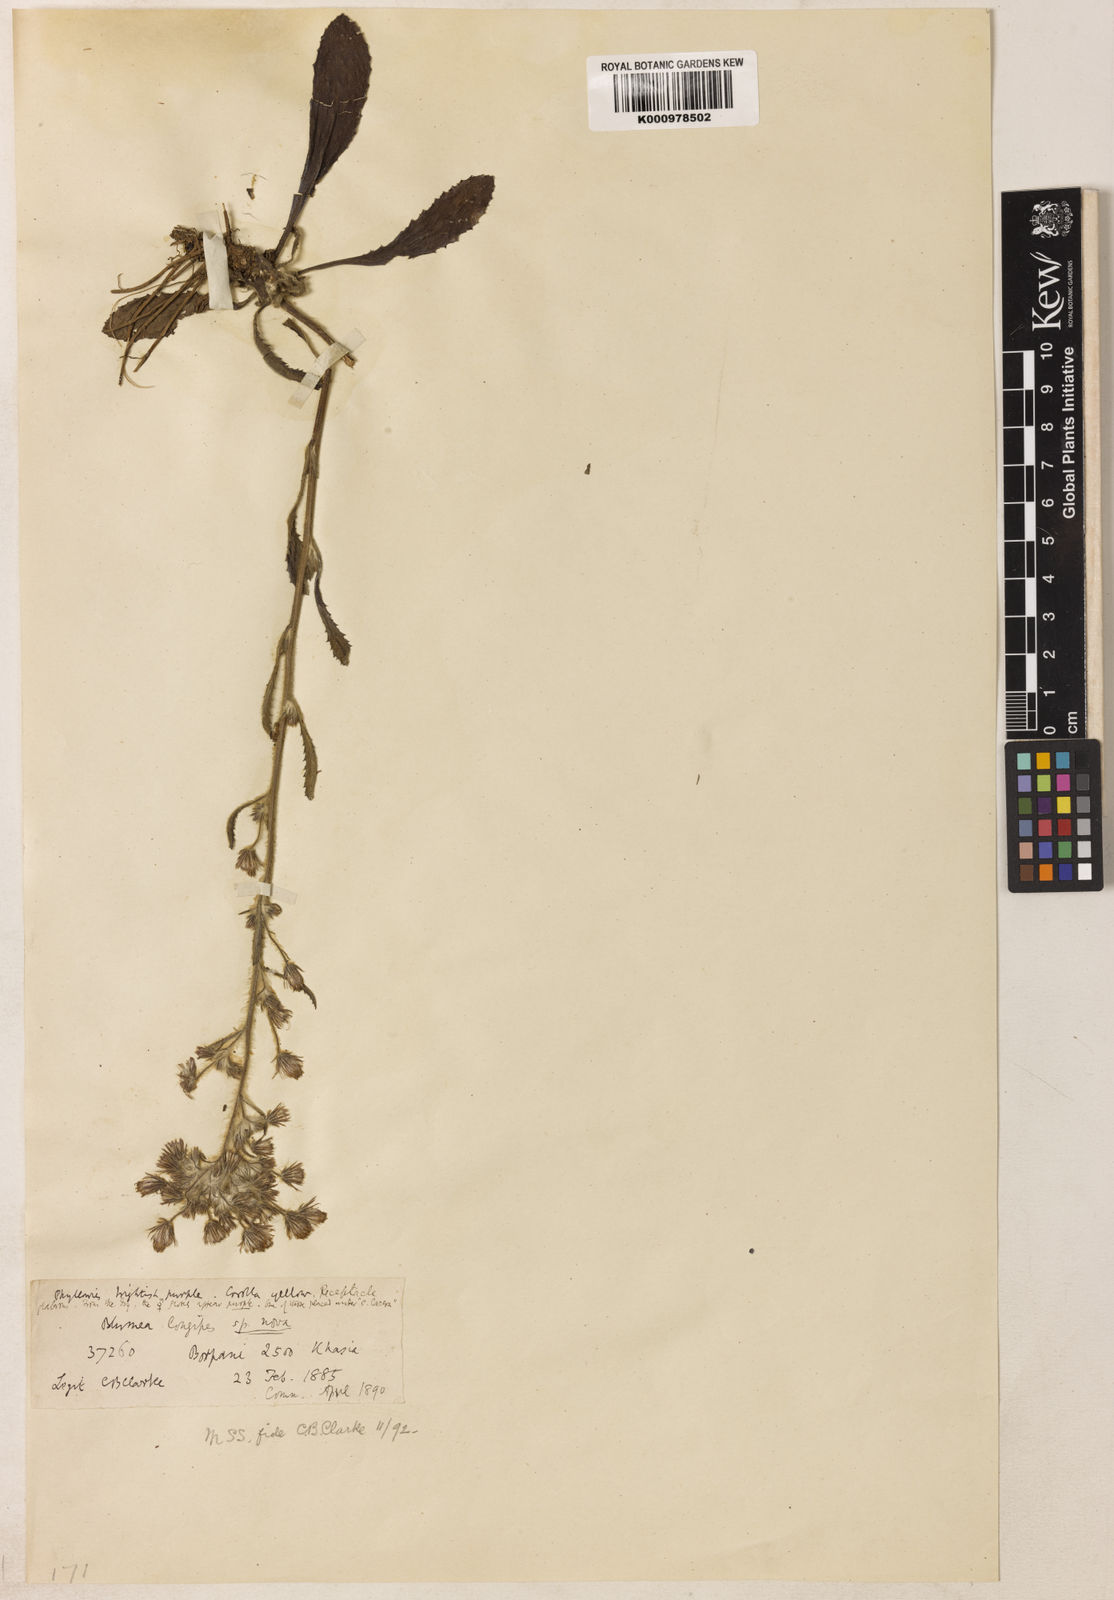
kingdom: Plantae
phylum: Tracheophyta
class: Magnoliopsida
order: Asterales
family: Asteraceae
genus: Blumea
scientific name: Blumea longipes
